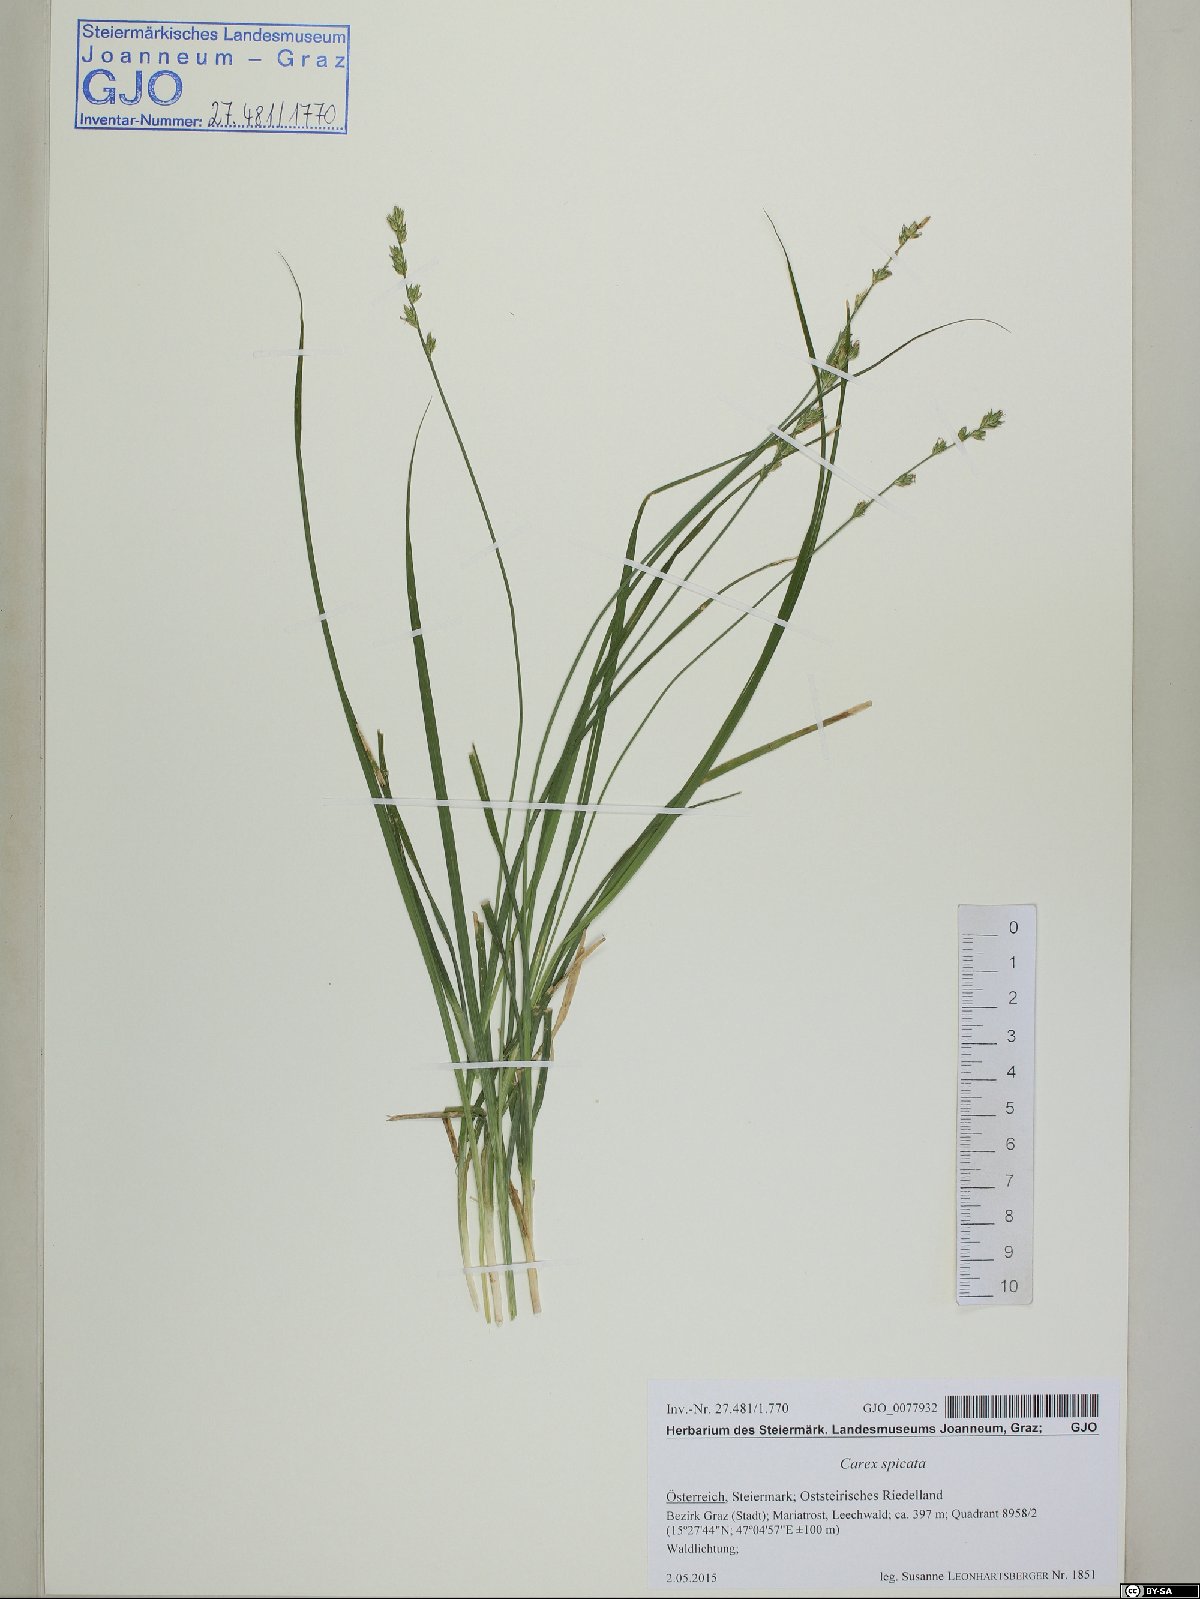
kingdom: Plantae
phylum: Tracheophyta
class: Liliopsida
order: Poales
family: Cyperaceae
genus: Carex
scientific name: Carex spicata
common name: Spiked sedge
